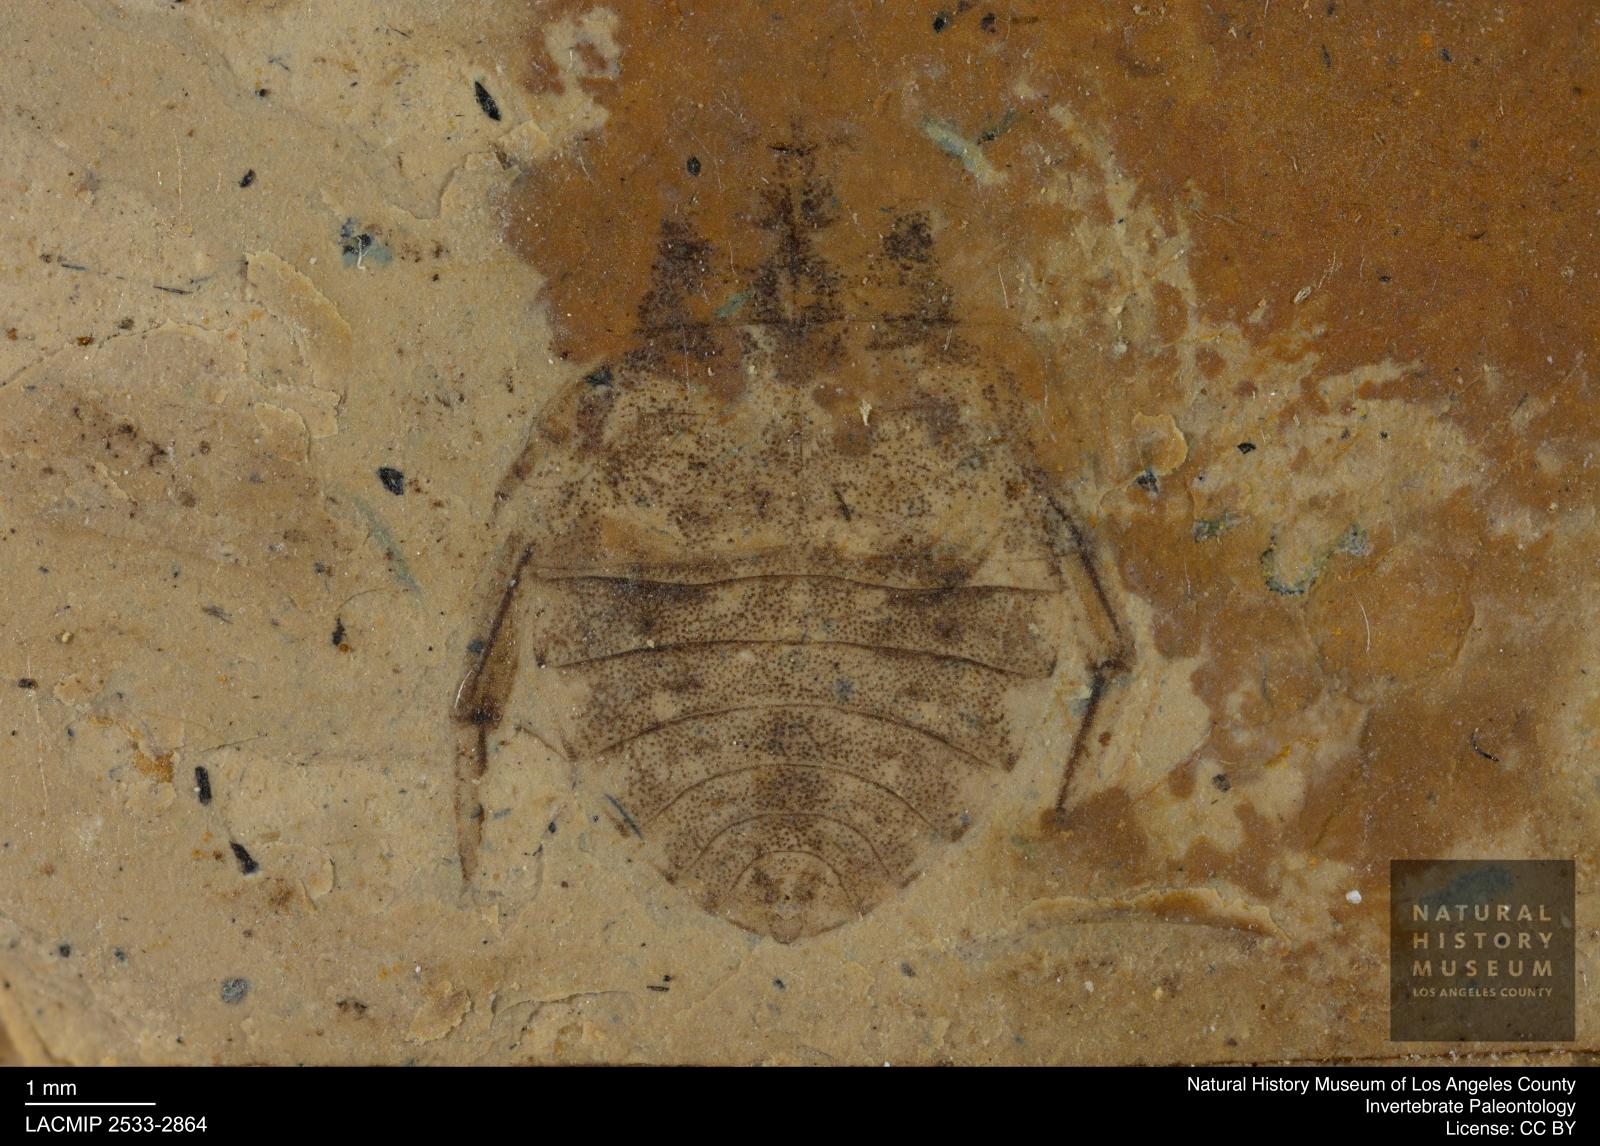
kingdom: Animalia
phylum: Arthropoda
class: Insecta
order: Hemiptera
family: Naucoridae
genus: Naucoris
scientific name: Naucoris rottensis
